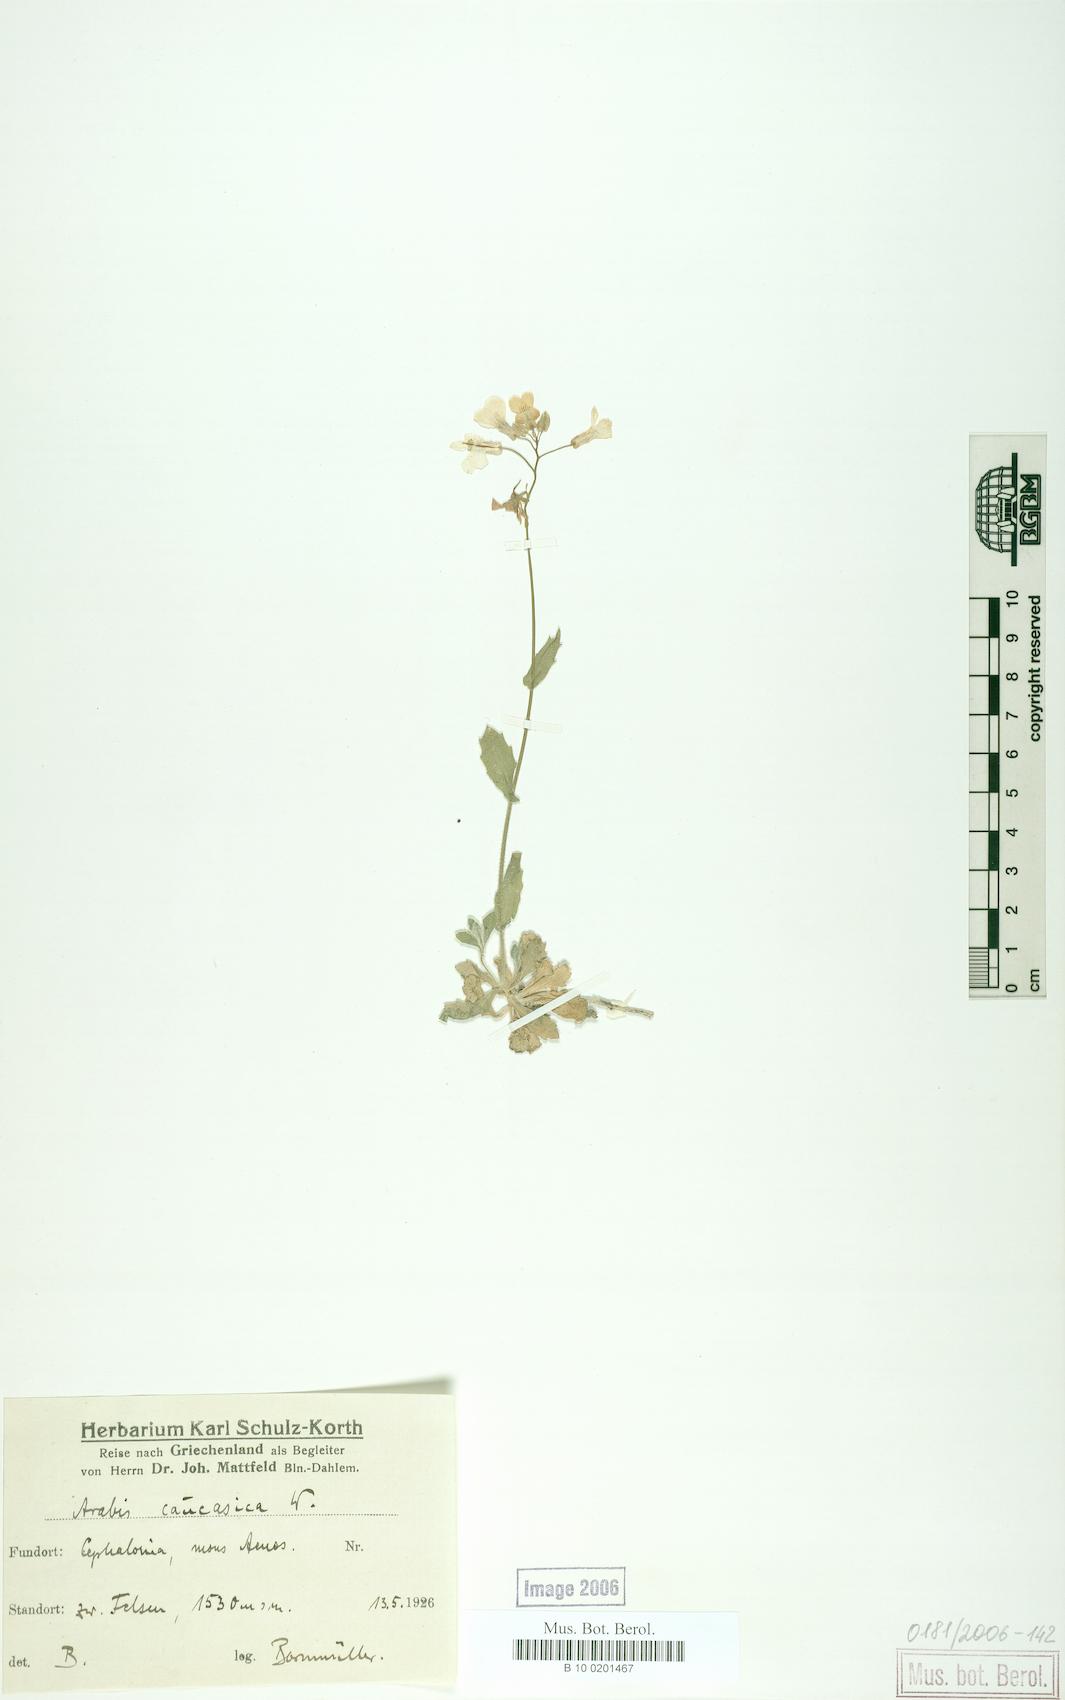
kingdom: Plantae
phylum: Tracheophyta
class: Magnoliopsida
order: Brassicales
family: Brassicaceae
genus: Arabis
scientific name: Arabis caucasica
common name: Gray rockcress
